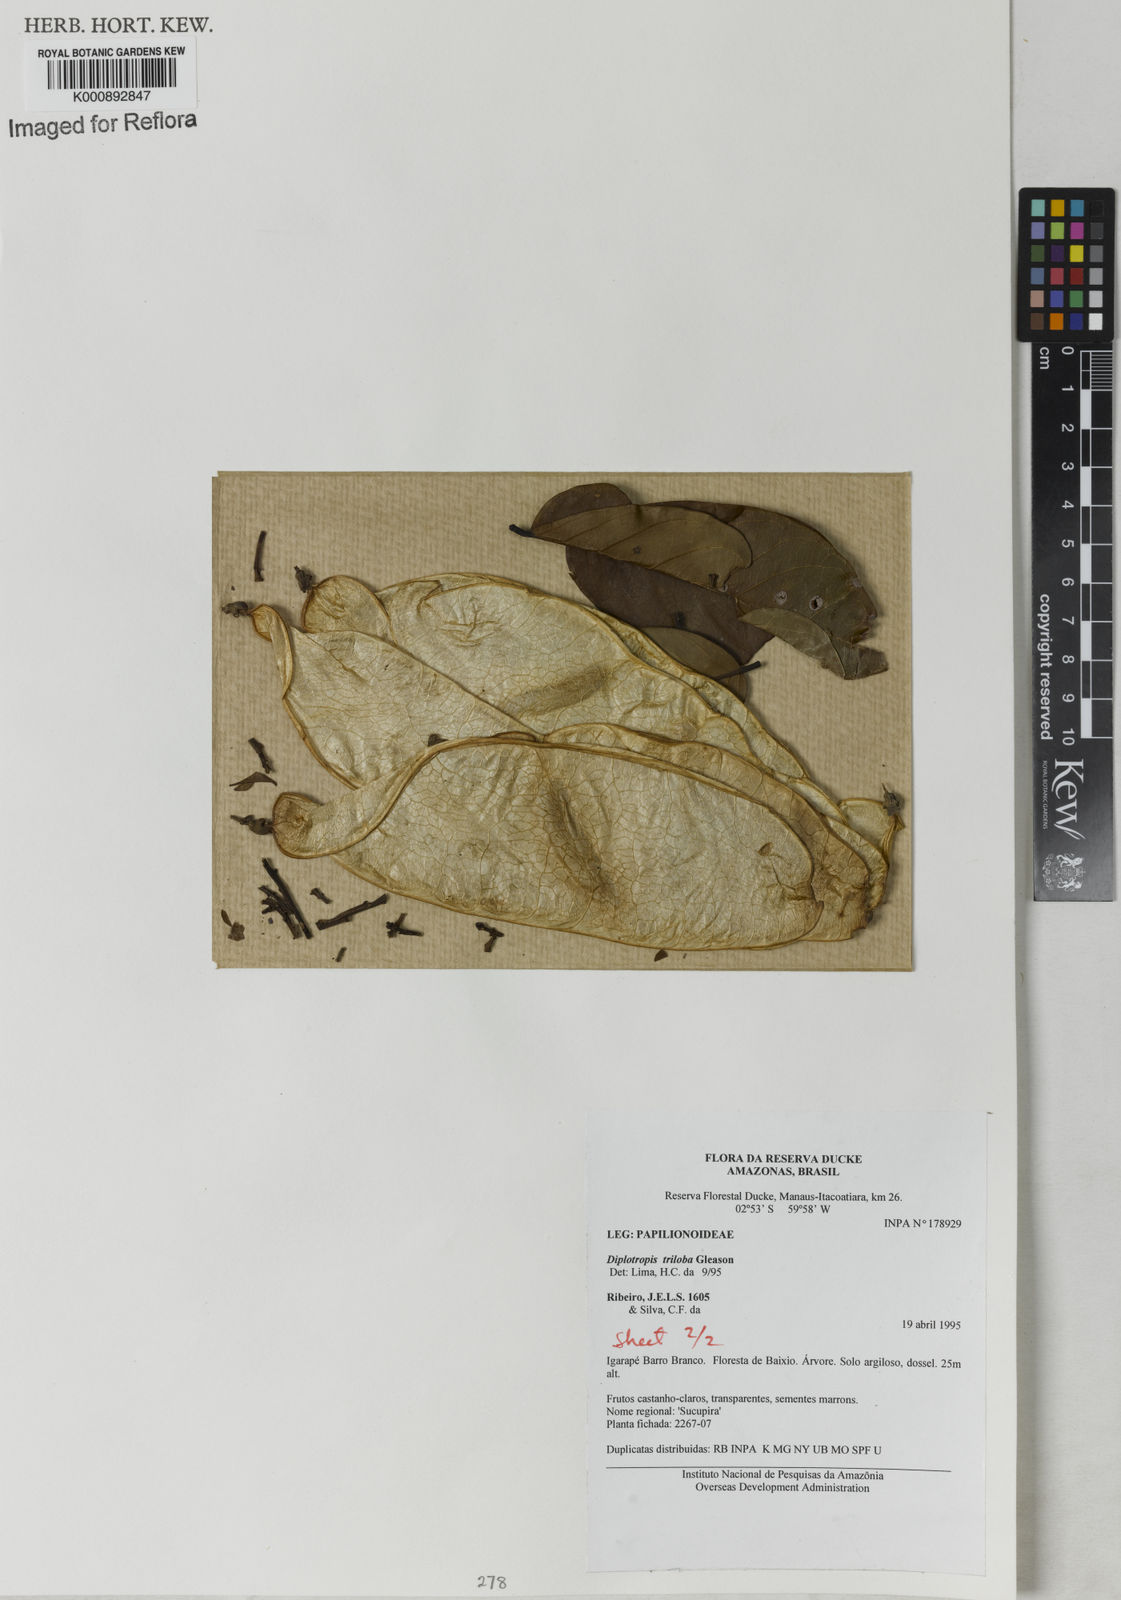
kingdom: Plantae
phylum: Tracheophyta
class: Magnoliopsida
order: Fabales
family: Fabaceae
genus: Diplotropis
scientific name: Diplotropis triloba
